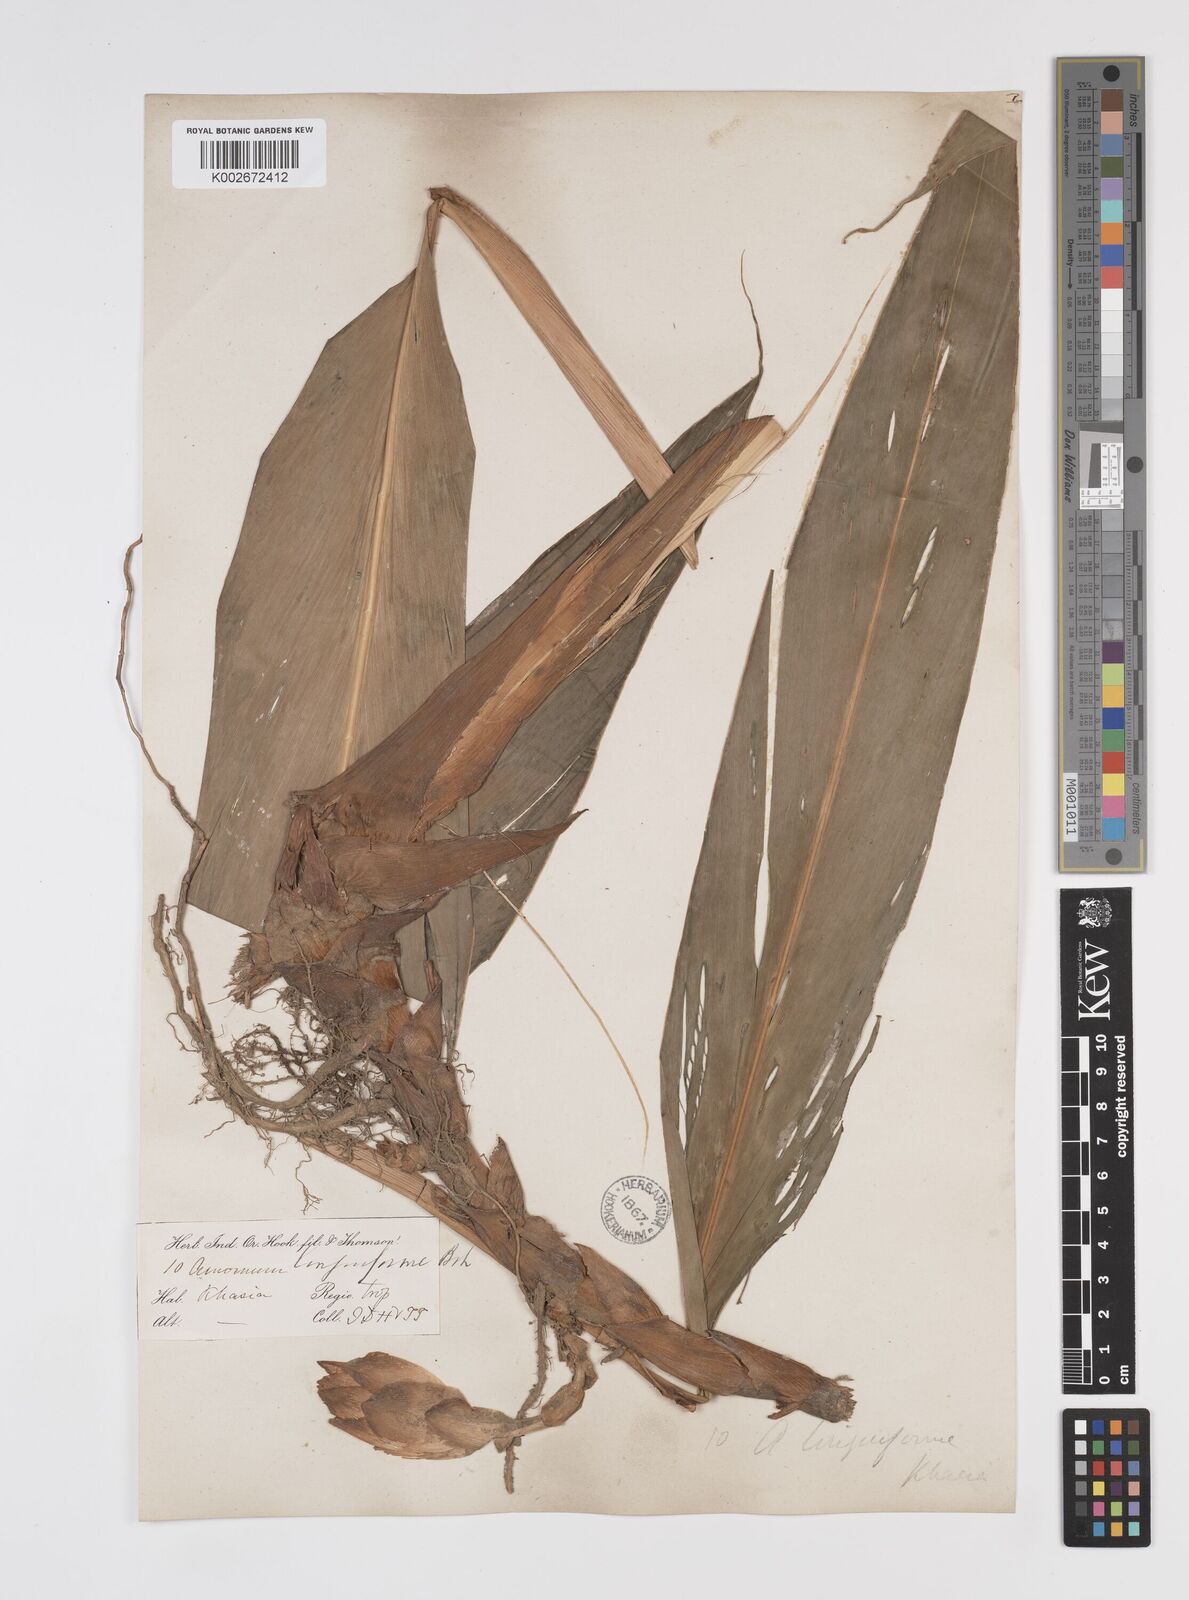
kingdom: Plantae
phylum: Tracheophyta
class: Liliopsida
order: Zingiberales
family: Zingiberaceae
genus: Etlingera
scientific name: Etlingera linguiformis
